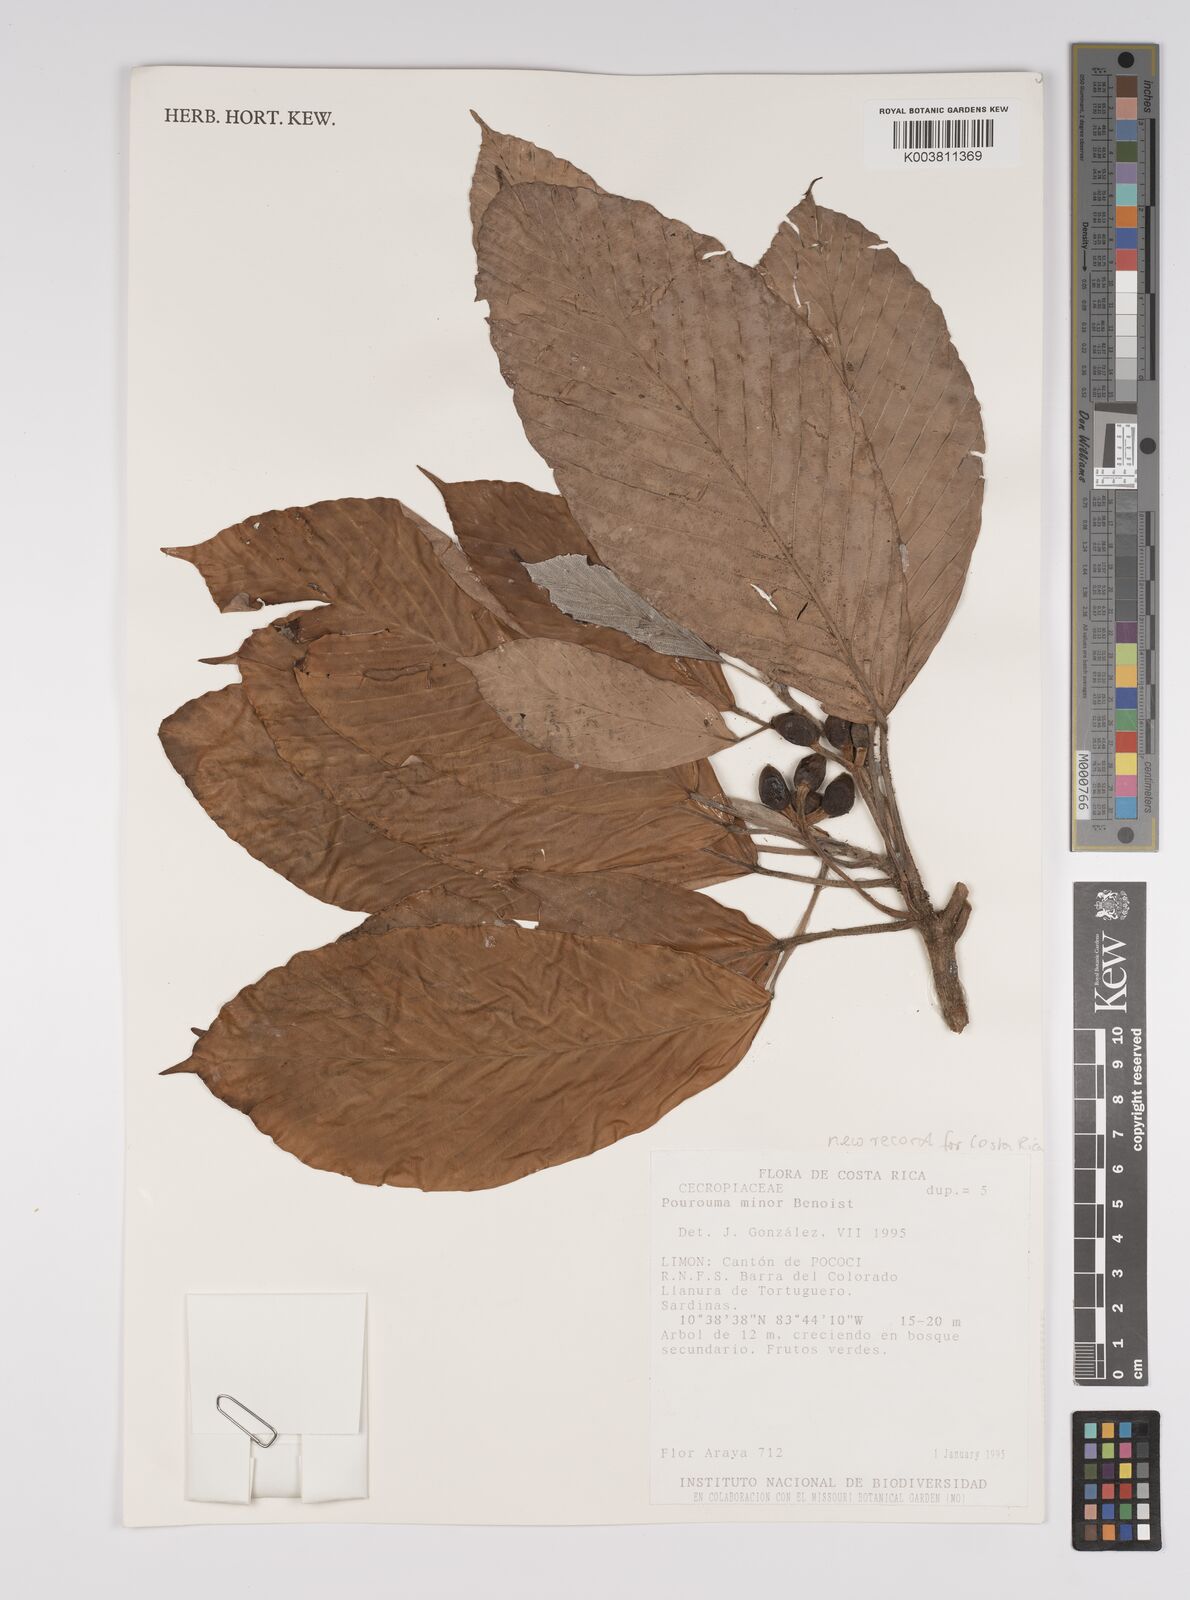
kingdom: Plantae
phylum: Tracheophyta
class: Magnoliopsida
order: Rosales
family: Urticaceae
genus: Pourouma
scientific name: Pourouma minor
